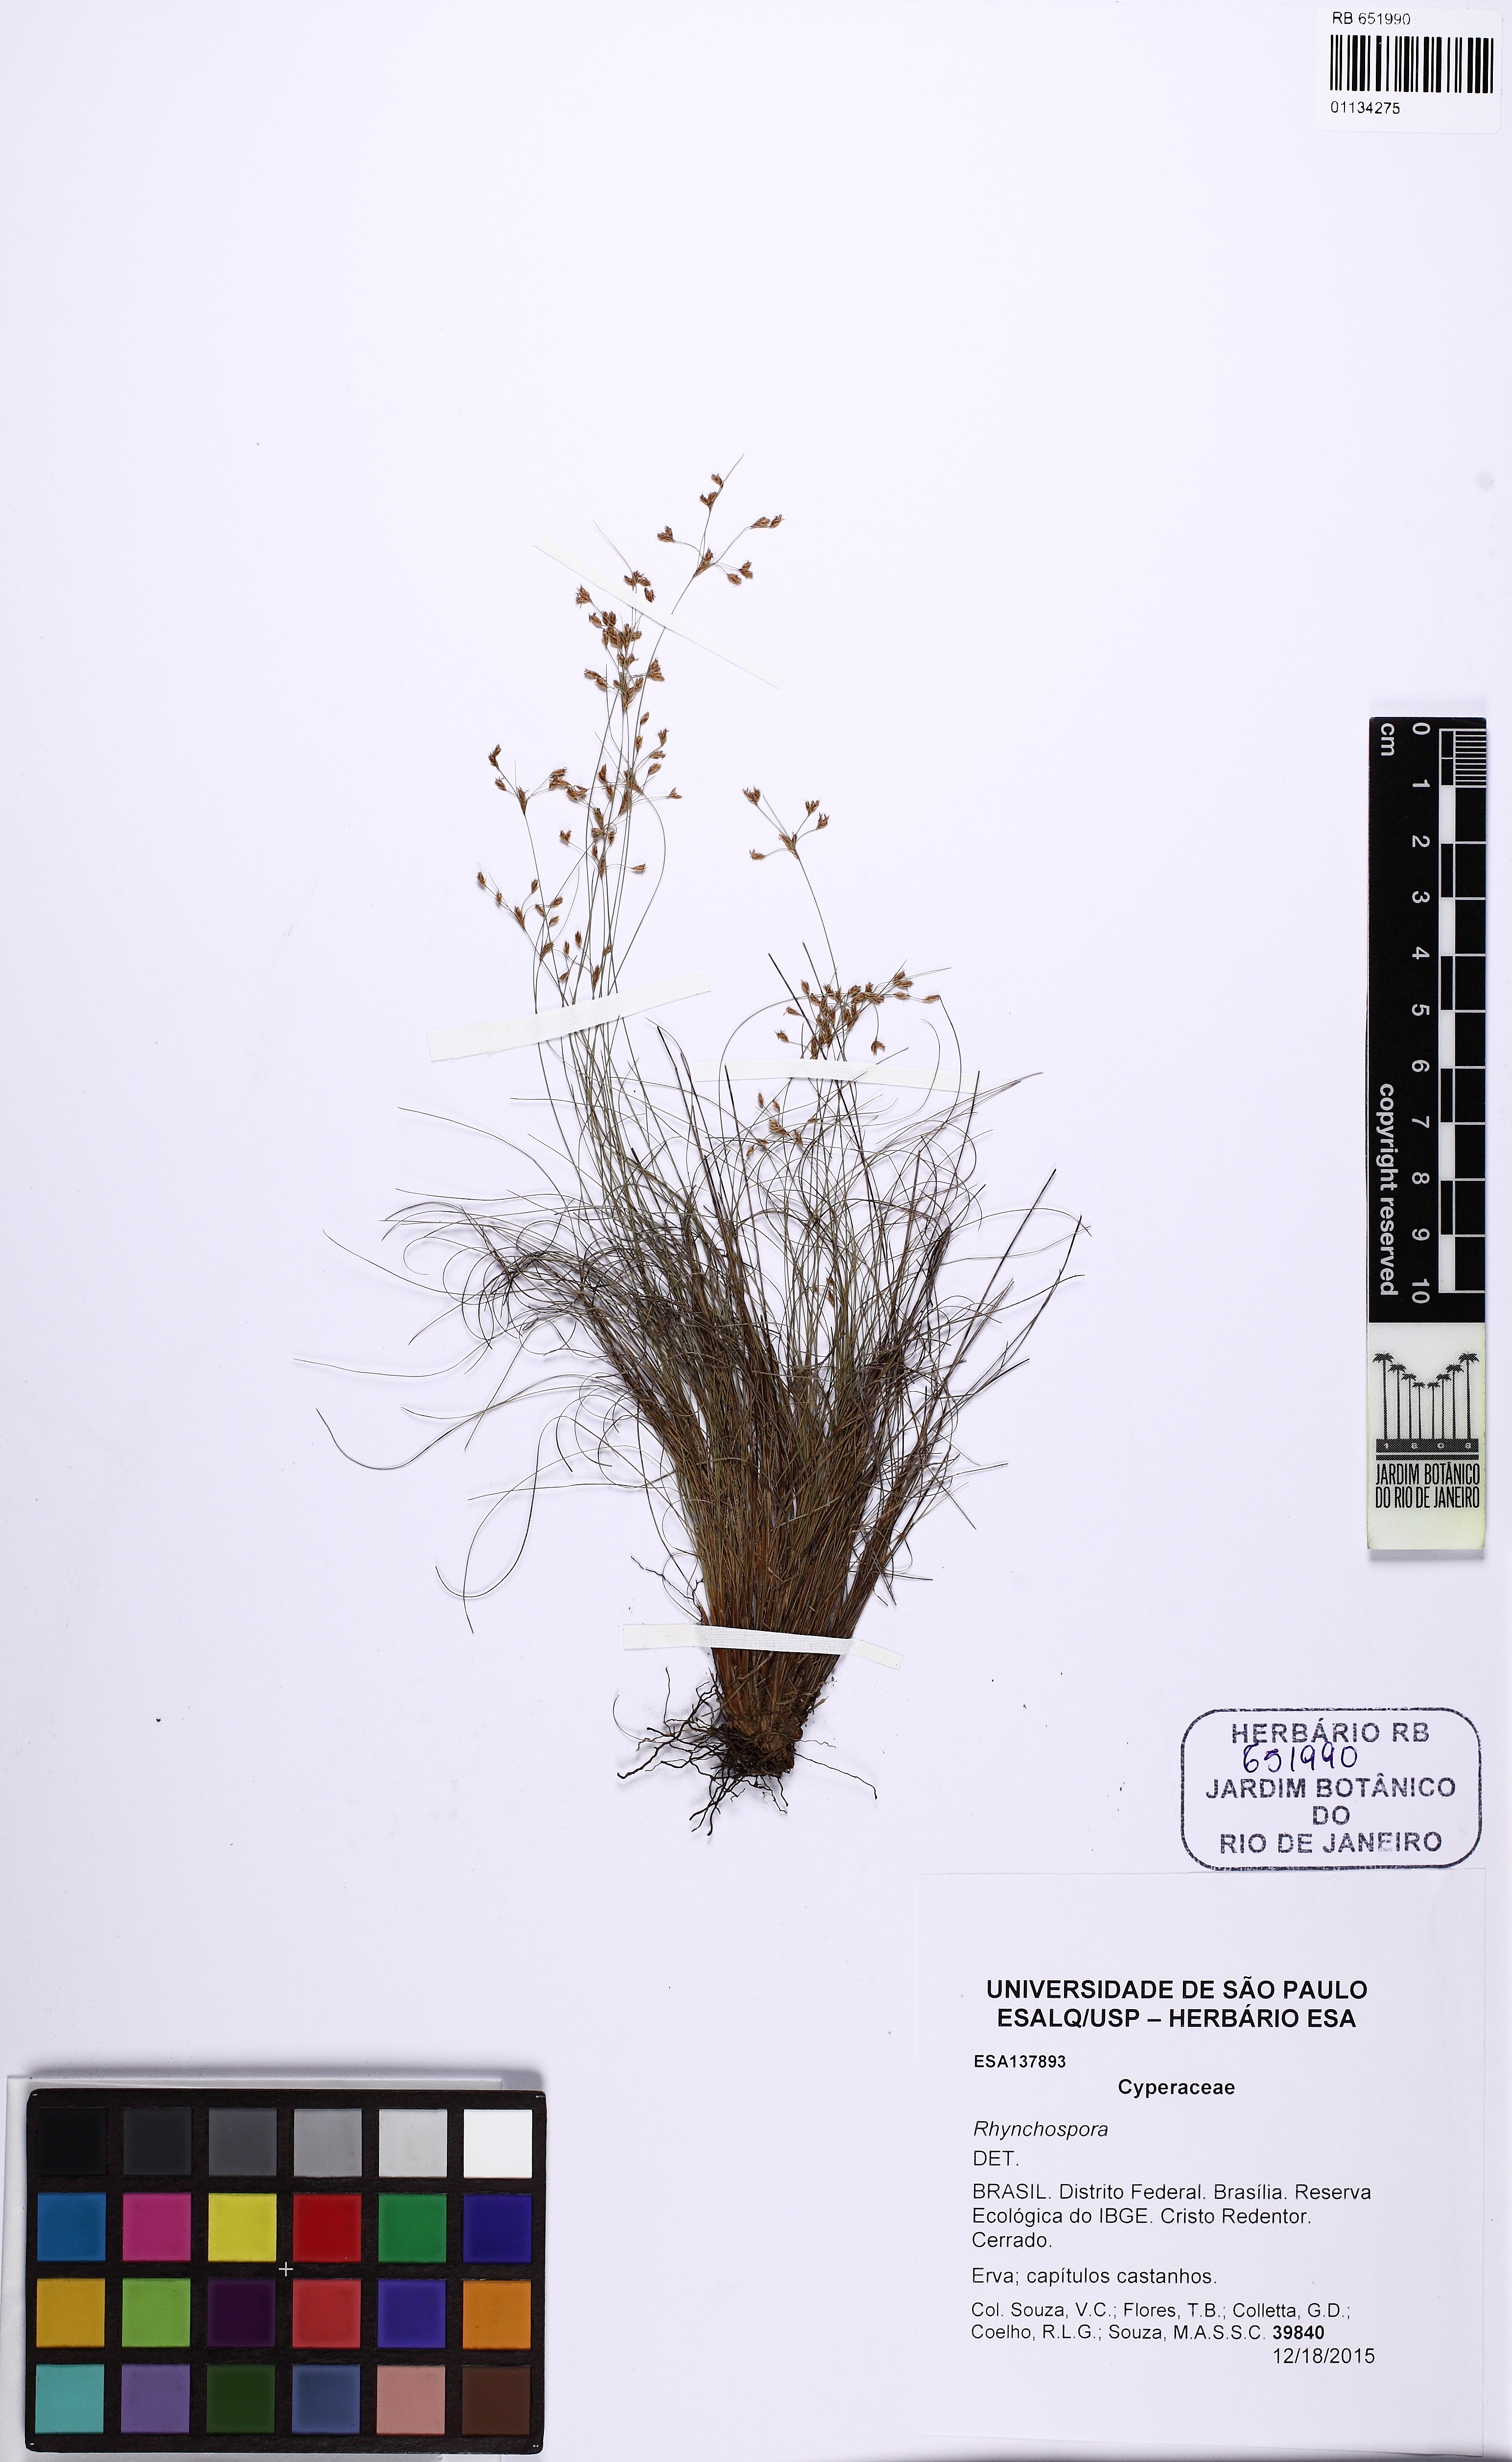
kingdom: Plantae
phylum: Tracheophyta
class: Liliopsida
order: Poales
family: Cyperaceae
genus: Bulbostylis
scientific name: Bulbostylis edwalliana
